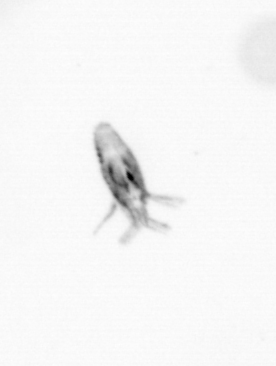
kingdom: Animalia
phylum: Arthropoda
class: Copepoda
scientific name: Copepoda
